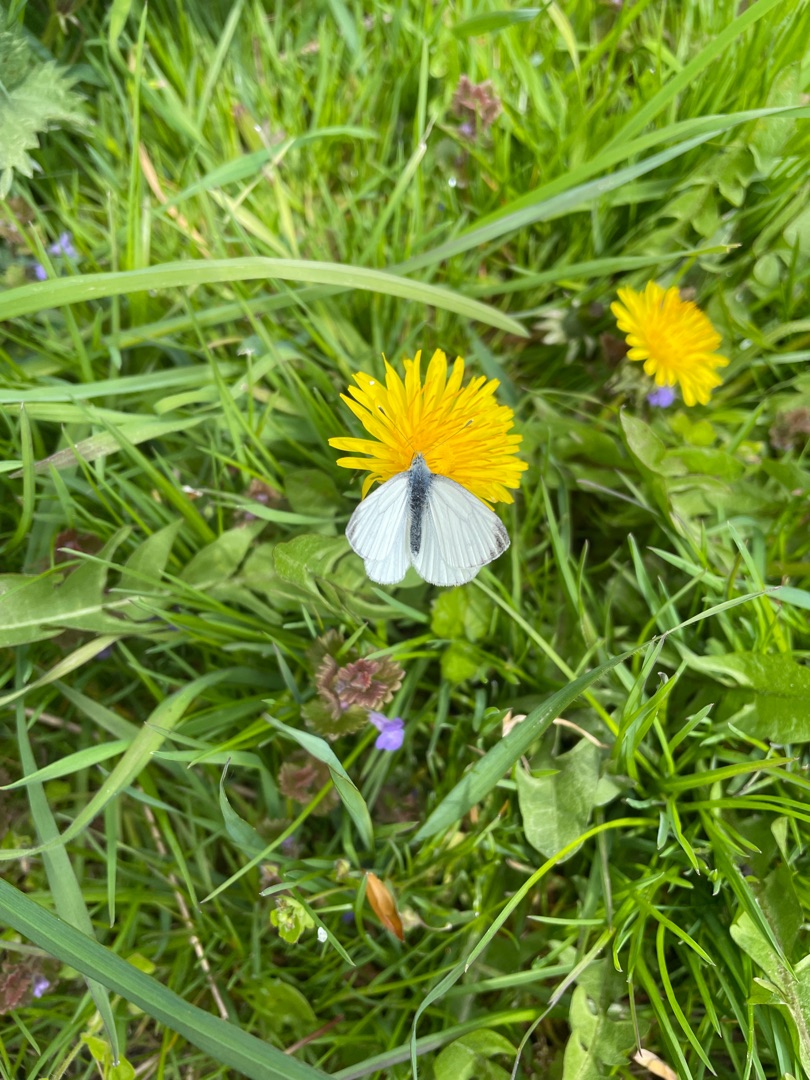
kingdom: Animalia
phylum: Arthropoda
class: Insecta
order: Lepidoptera
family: Pieridae
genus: Pieris
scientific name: Pieris napi
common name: Grønåret kålsommerfugl
